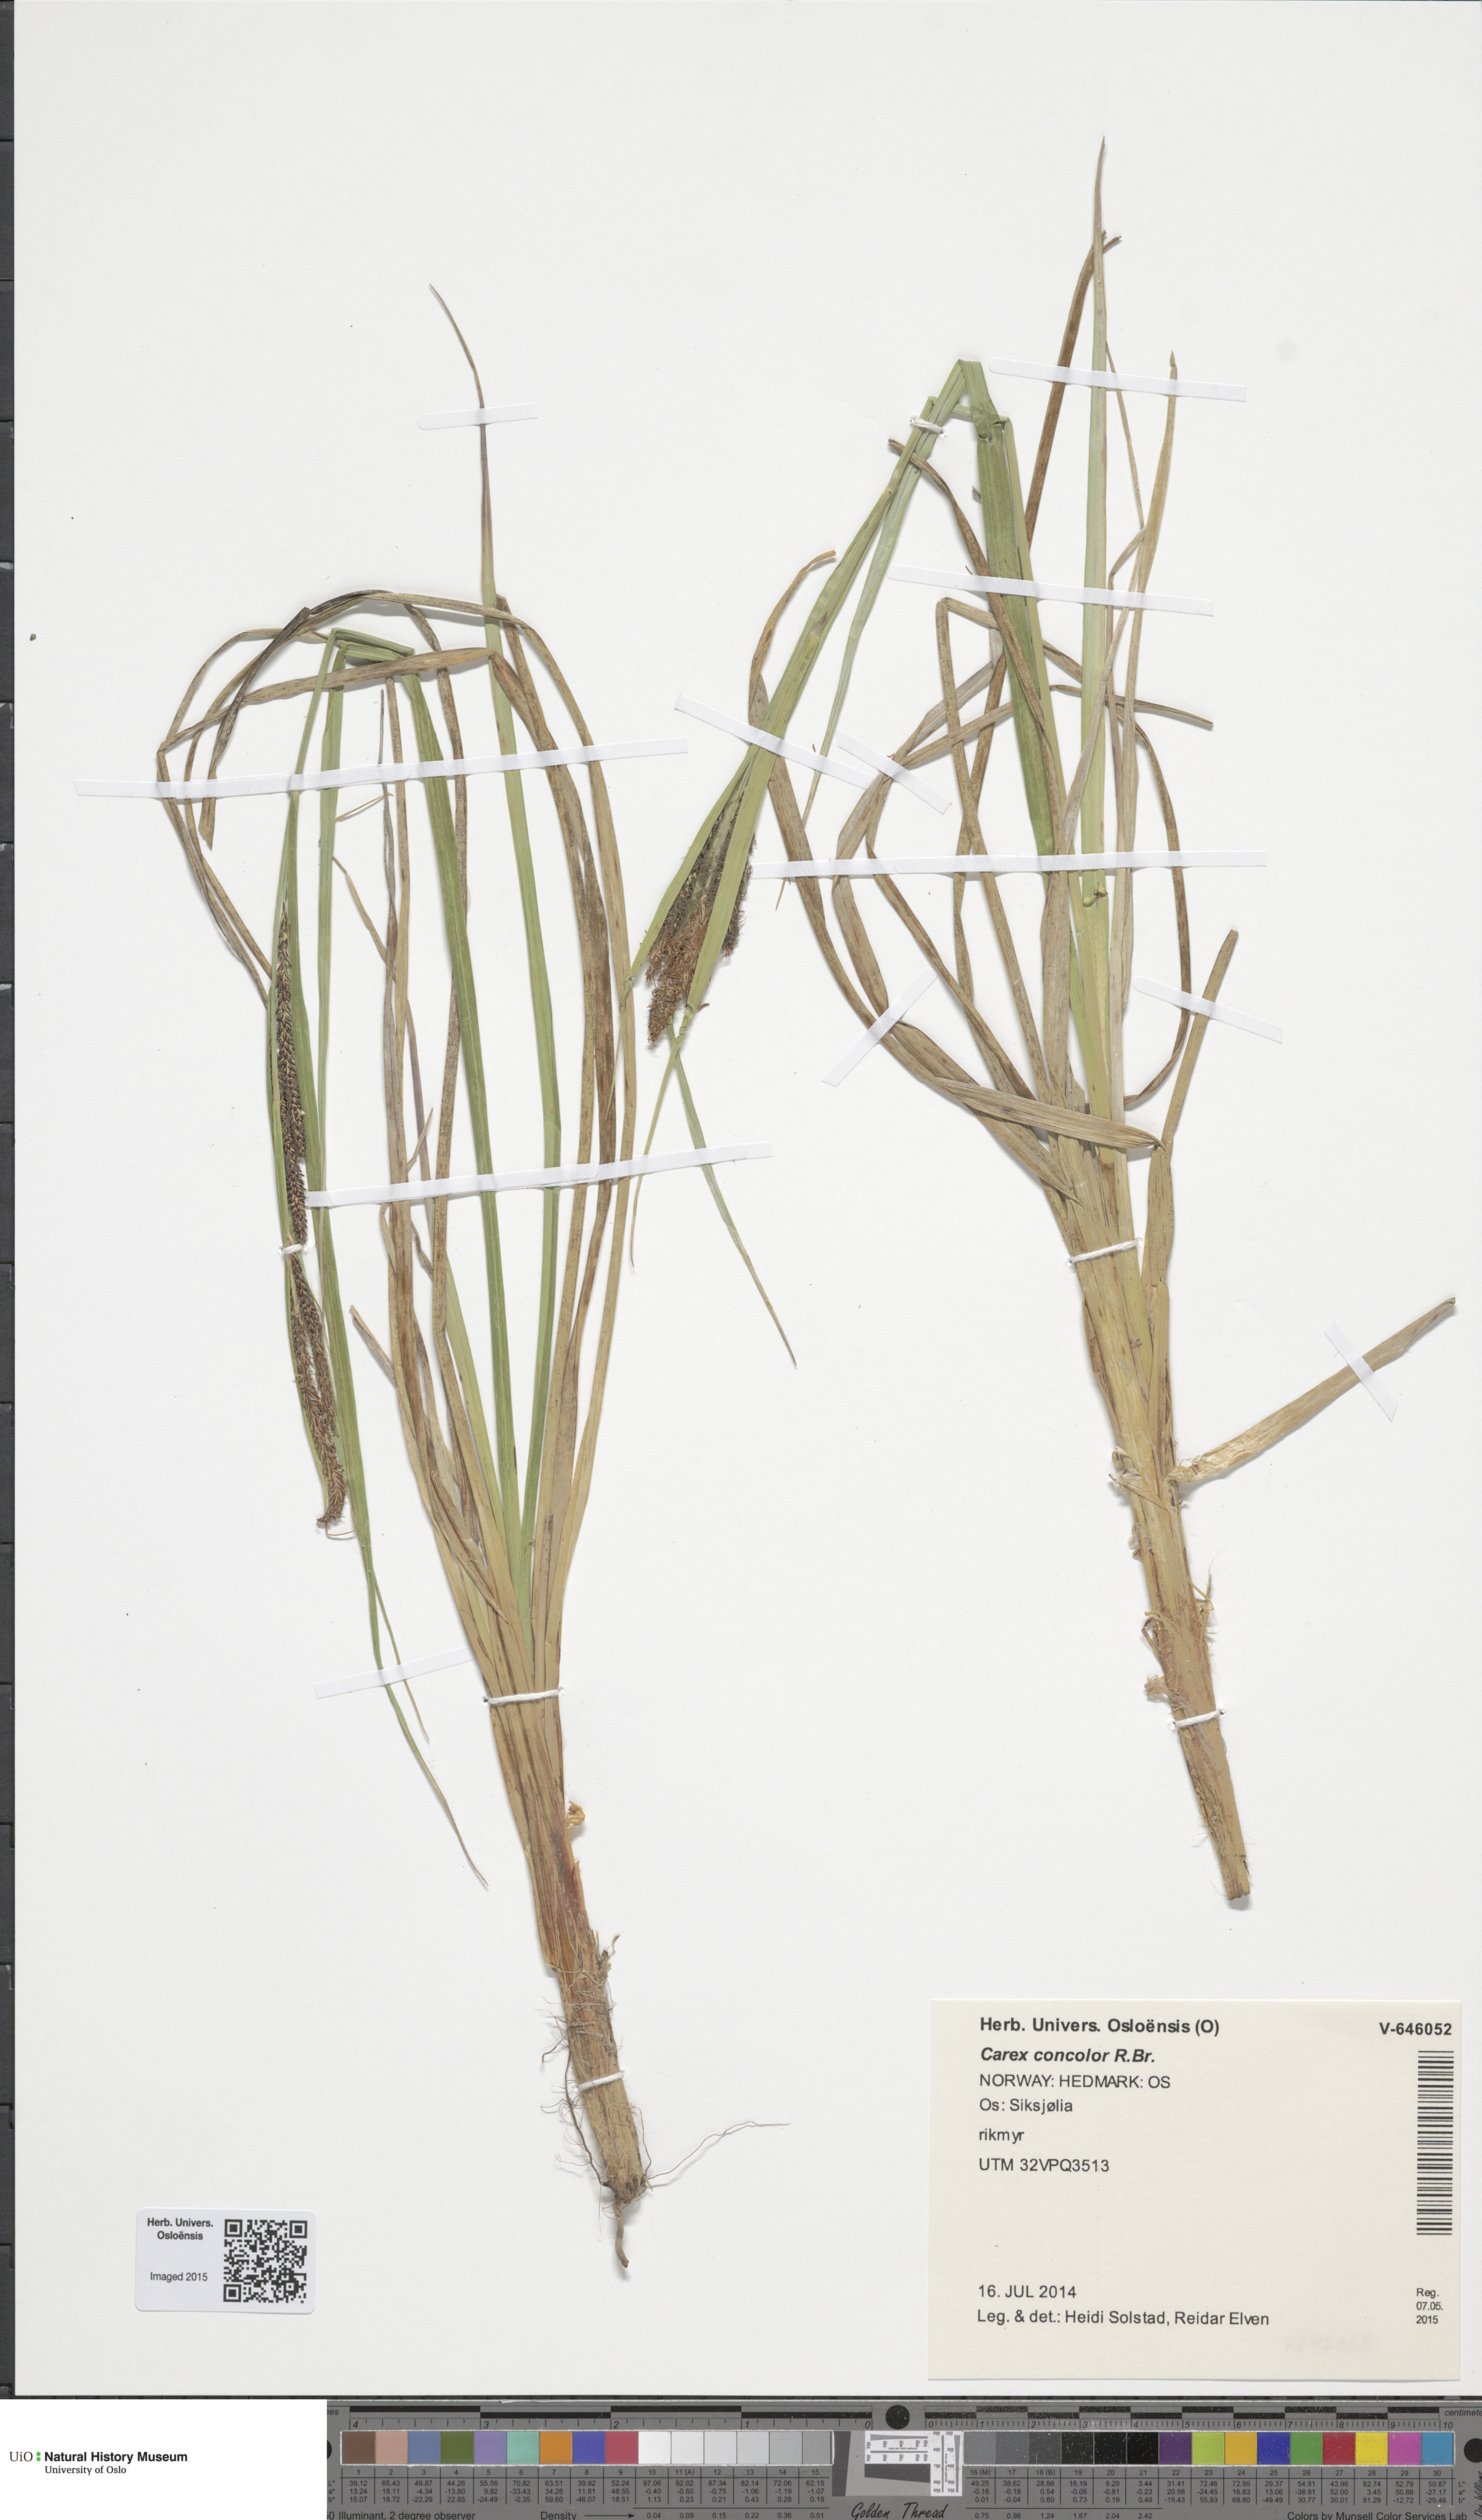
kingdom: Plantae
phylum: Tracheophyta
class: Liliopsida
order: Poales
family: Cyperaceae
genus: Carex
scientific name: Carex aquatilis
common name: Water sedge
